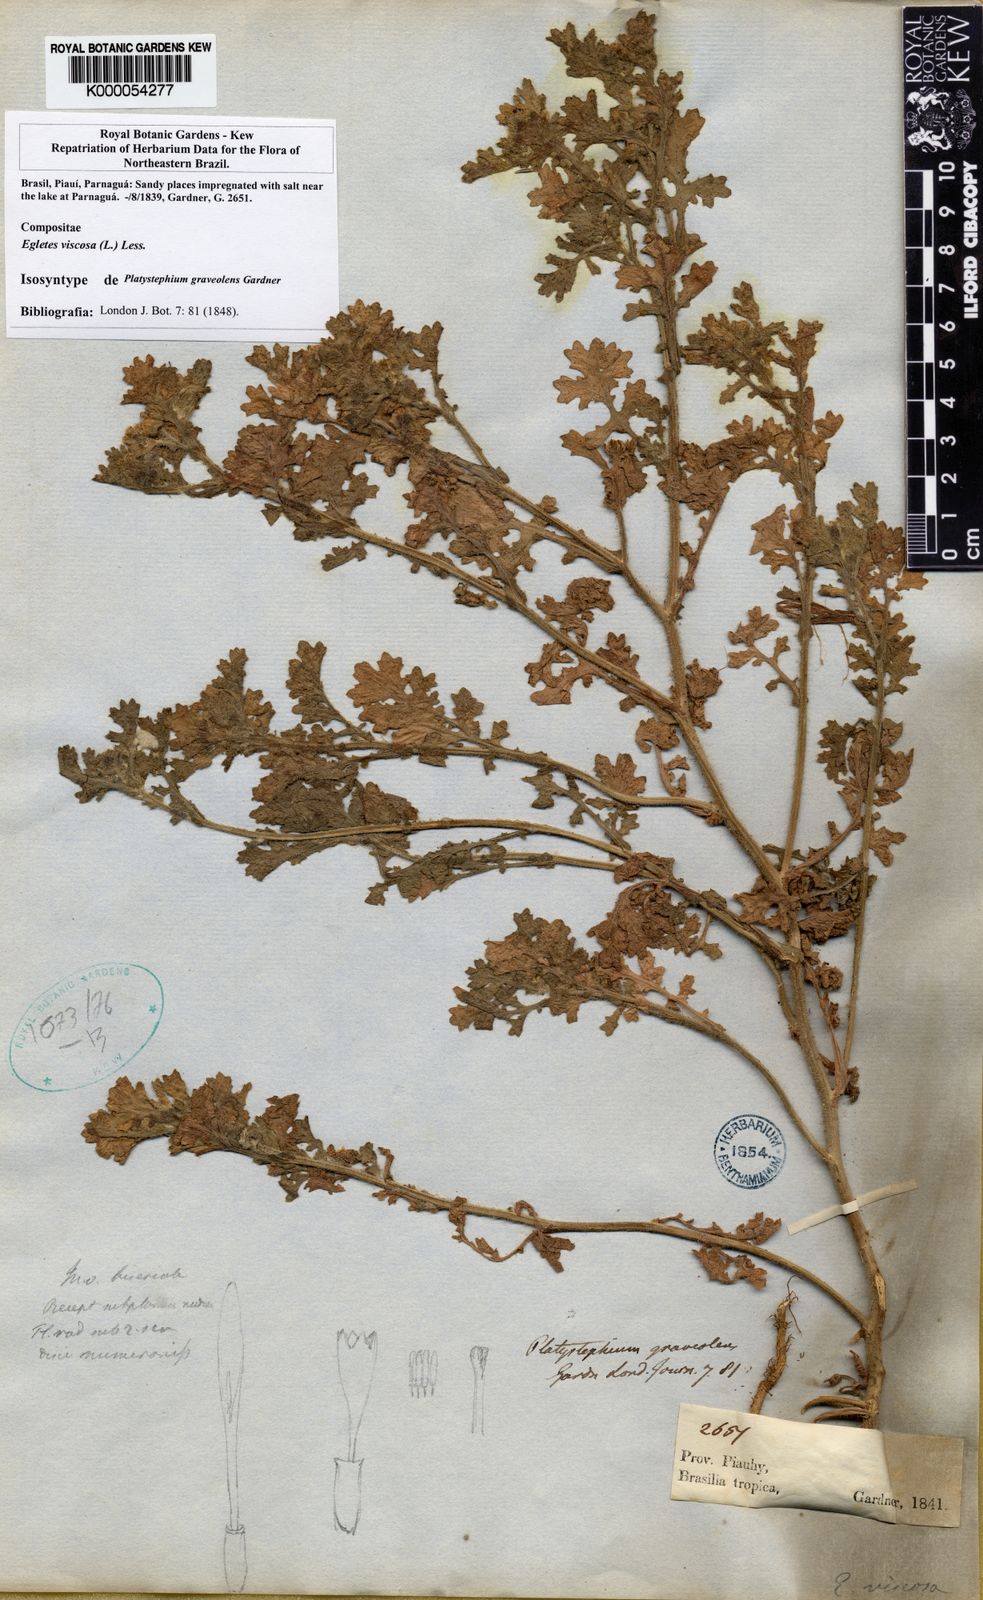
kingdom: Plantae
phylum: Tracheophyta
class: Magnoliopsida
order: Asterales
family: Asteraceae
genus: Egletes
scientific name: Egletes viscosa
